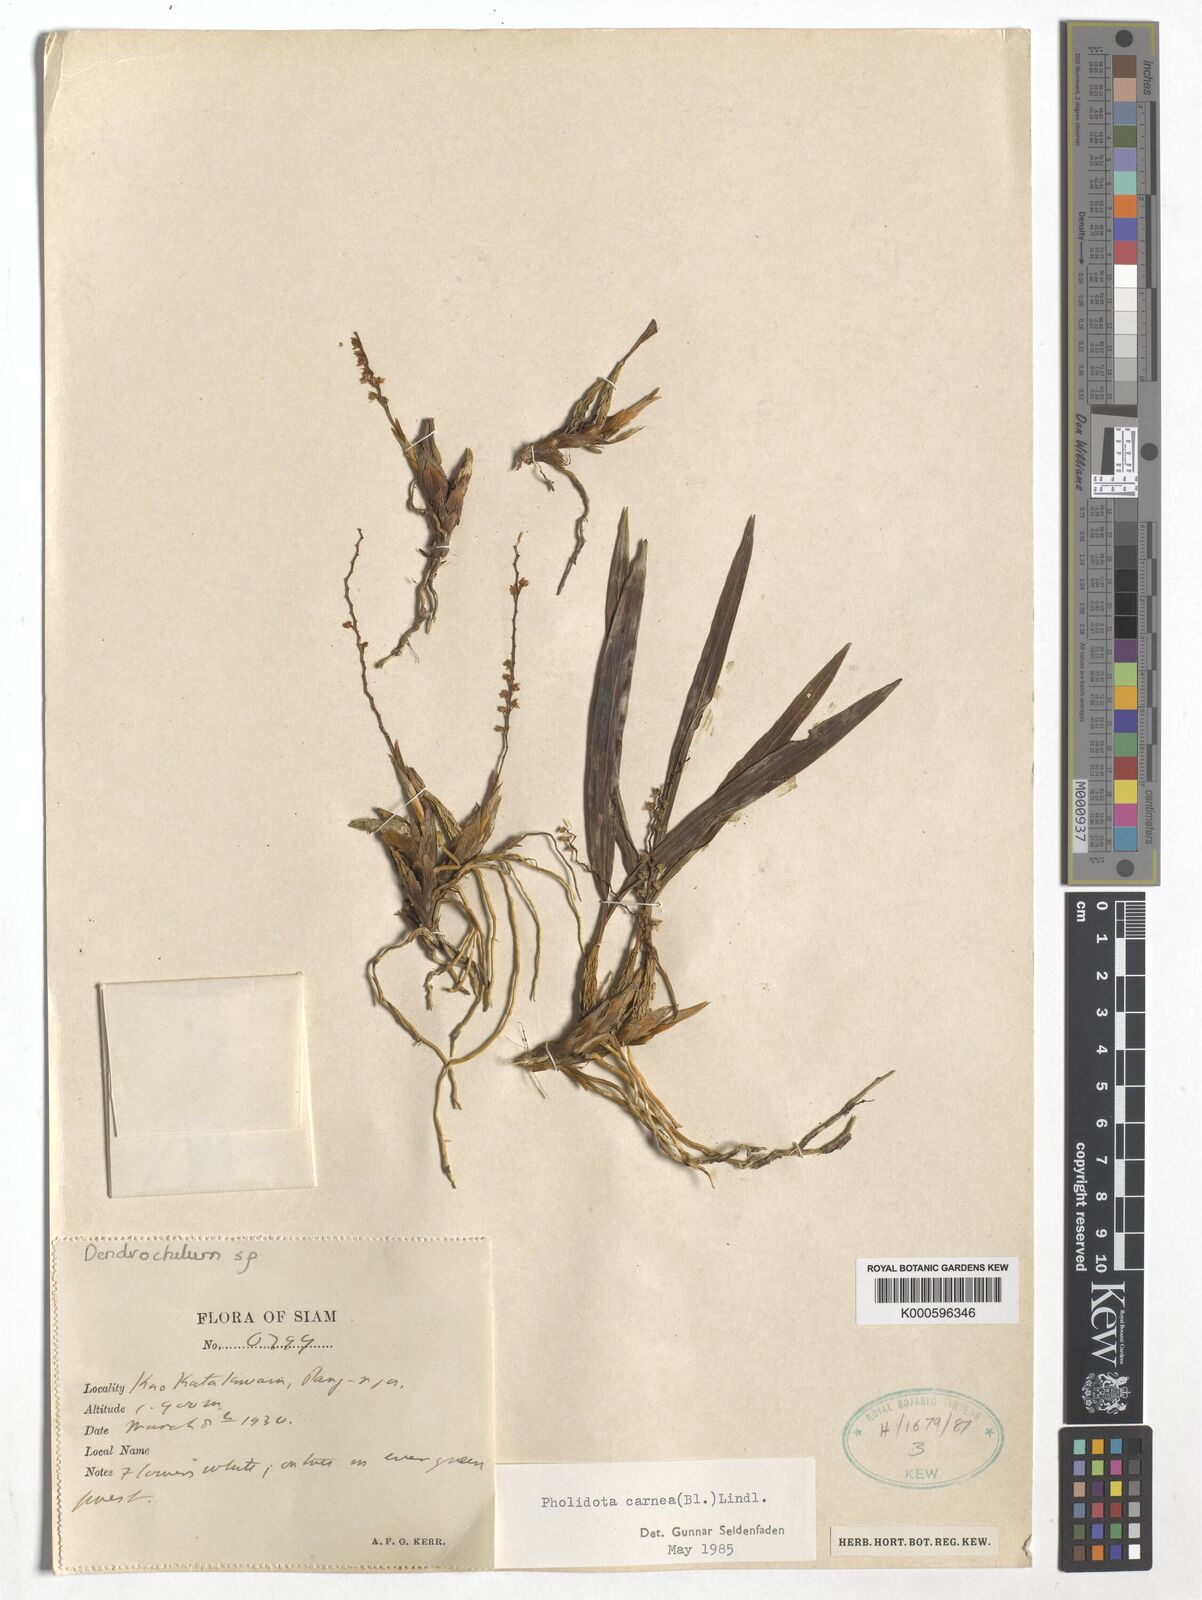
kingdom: Plantae
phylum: Tracheophyta
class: Liliopsida
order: Asparagales
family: Orchidaceae
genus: Coelogyne
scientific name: Coelogyne carnea
